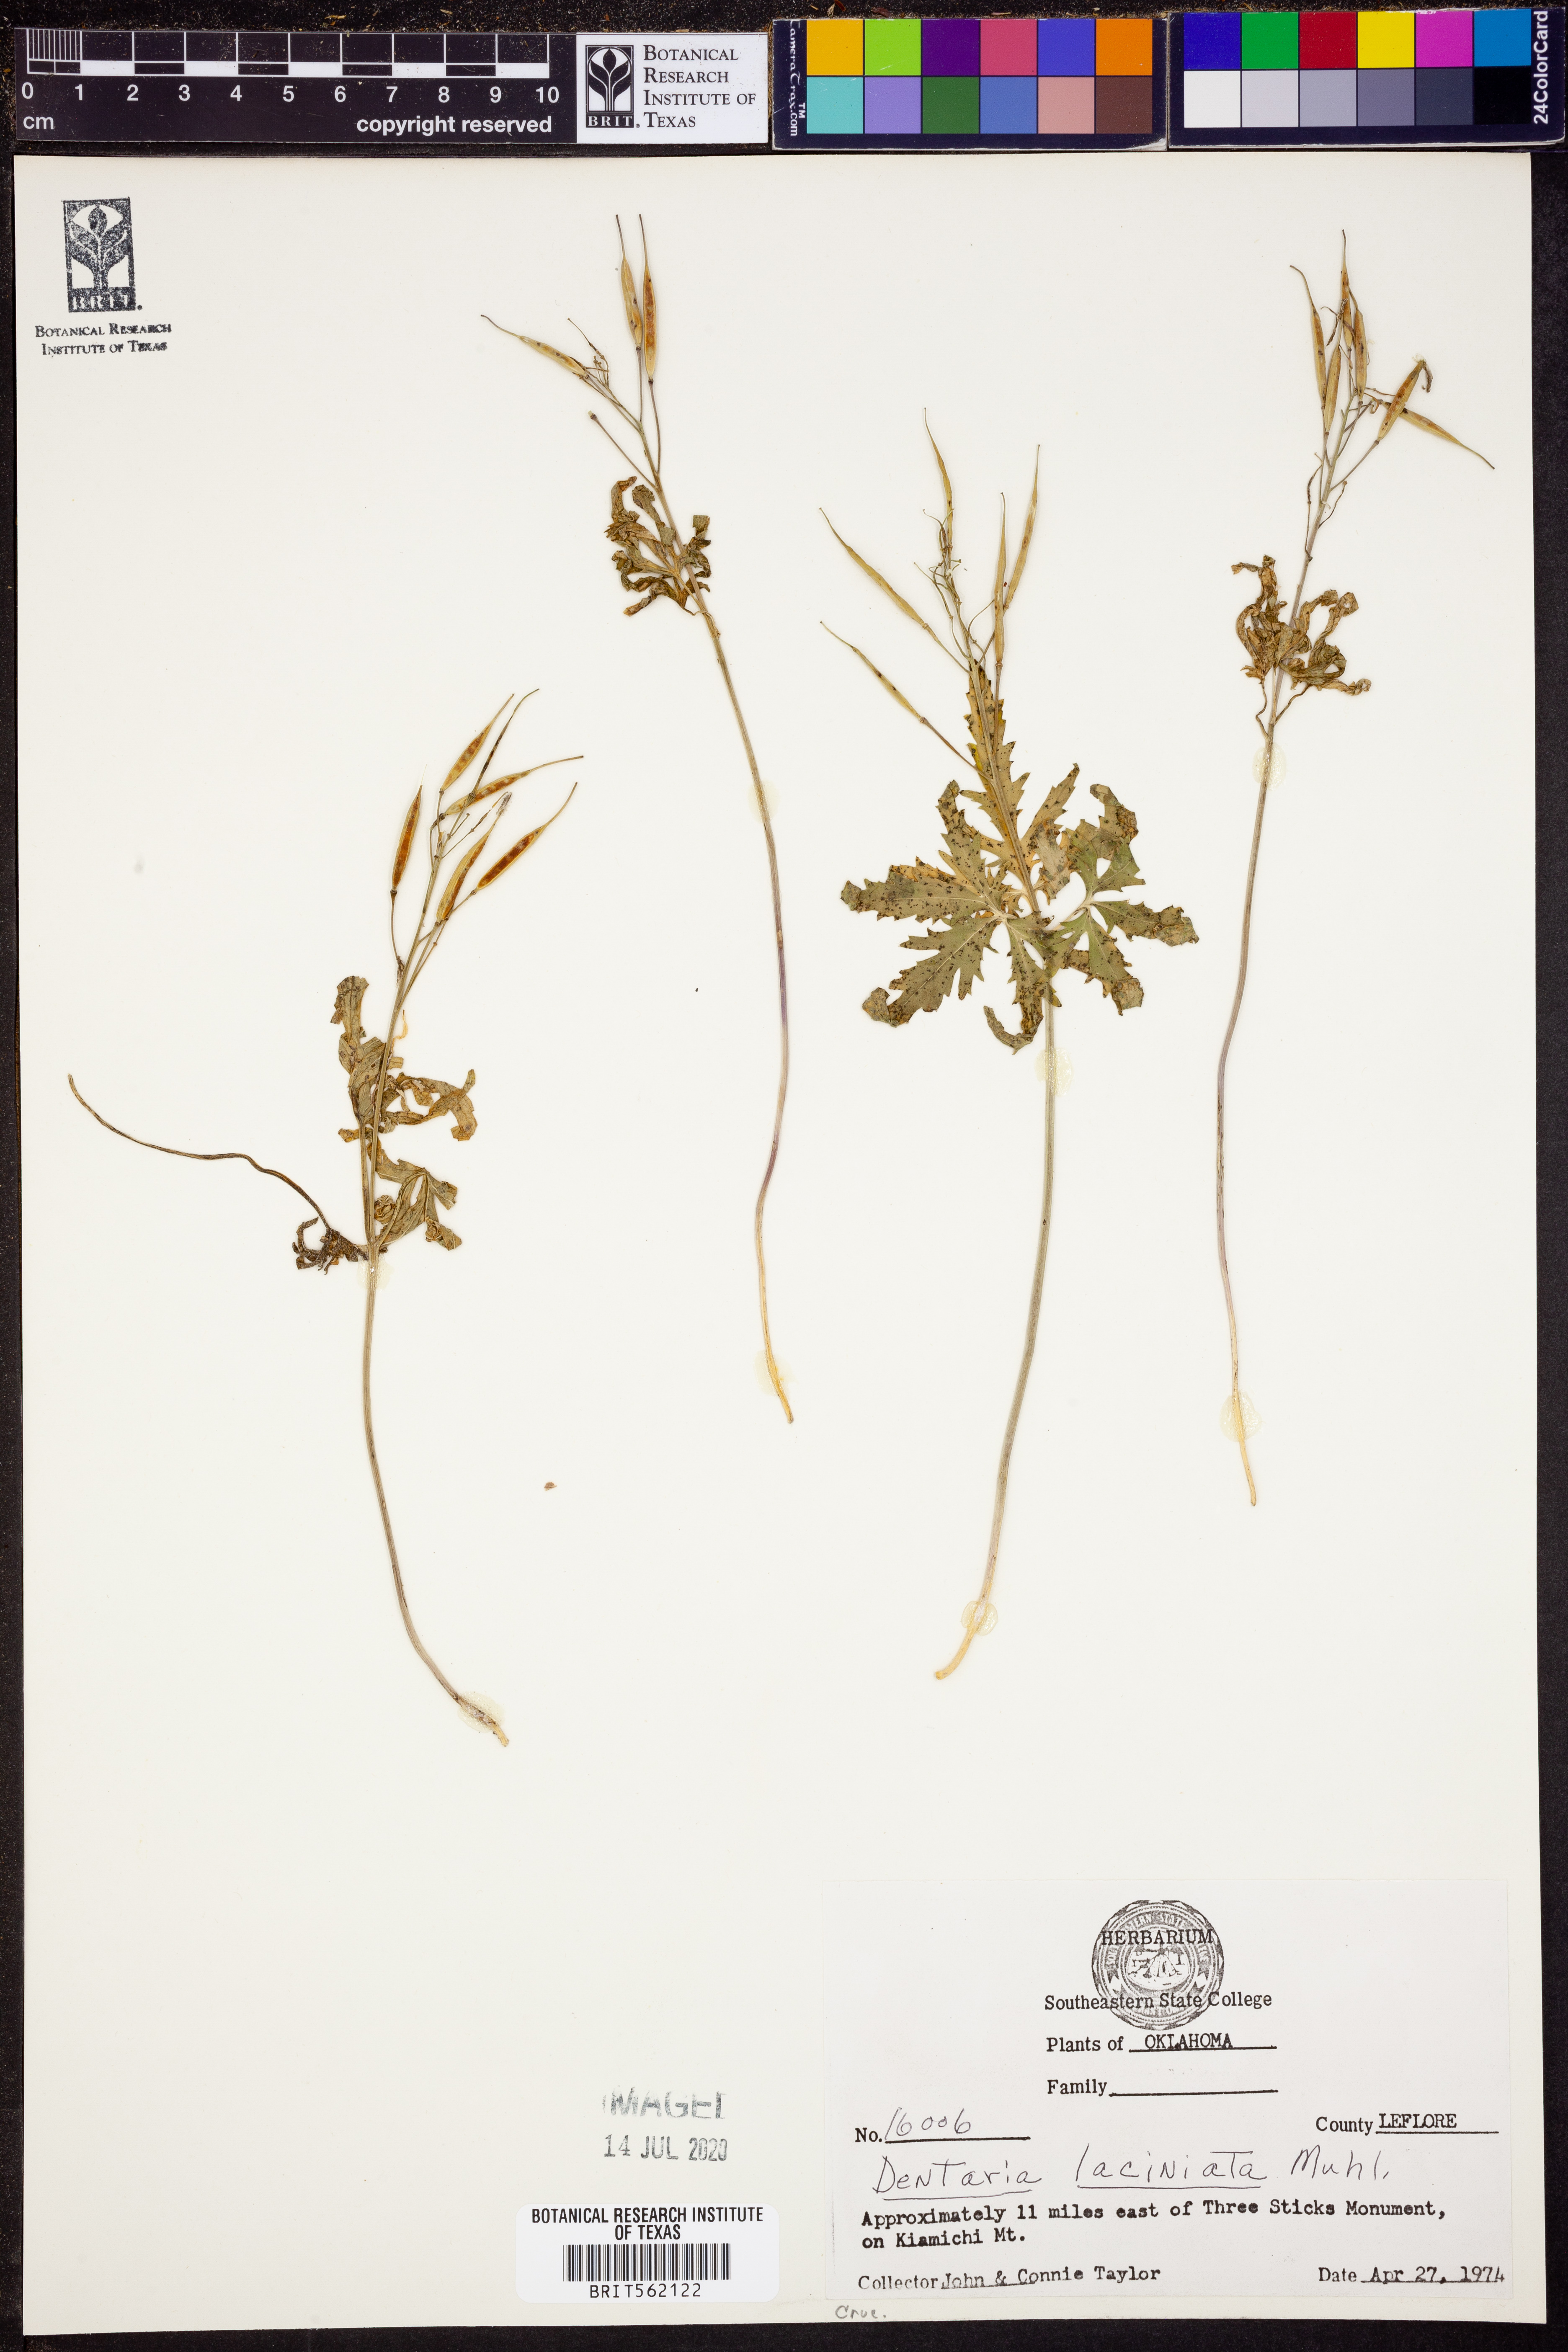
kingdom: Plantae
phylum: Tracheophyta
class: Magnoliopsida
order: Brassicales
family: Brassicaceae
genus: Cardamine
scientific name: Cardamine concatenata
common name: Cut-leaf toothcup
